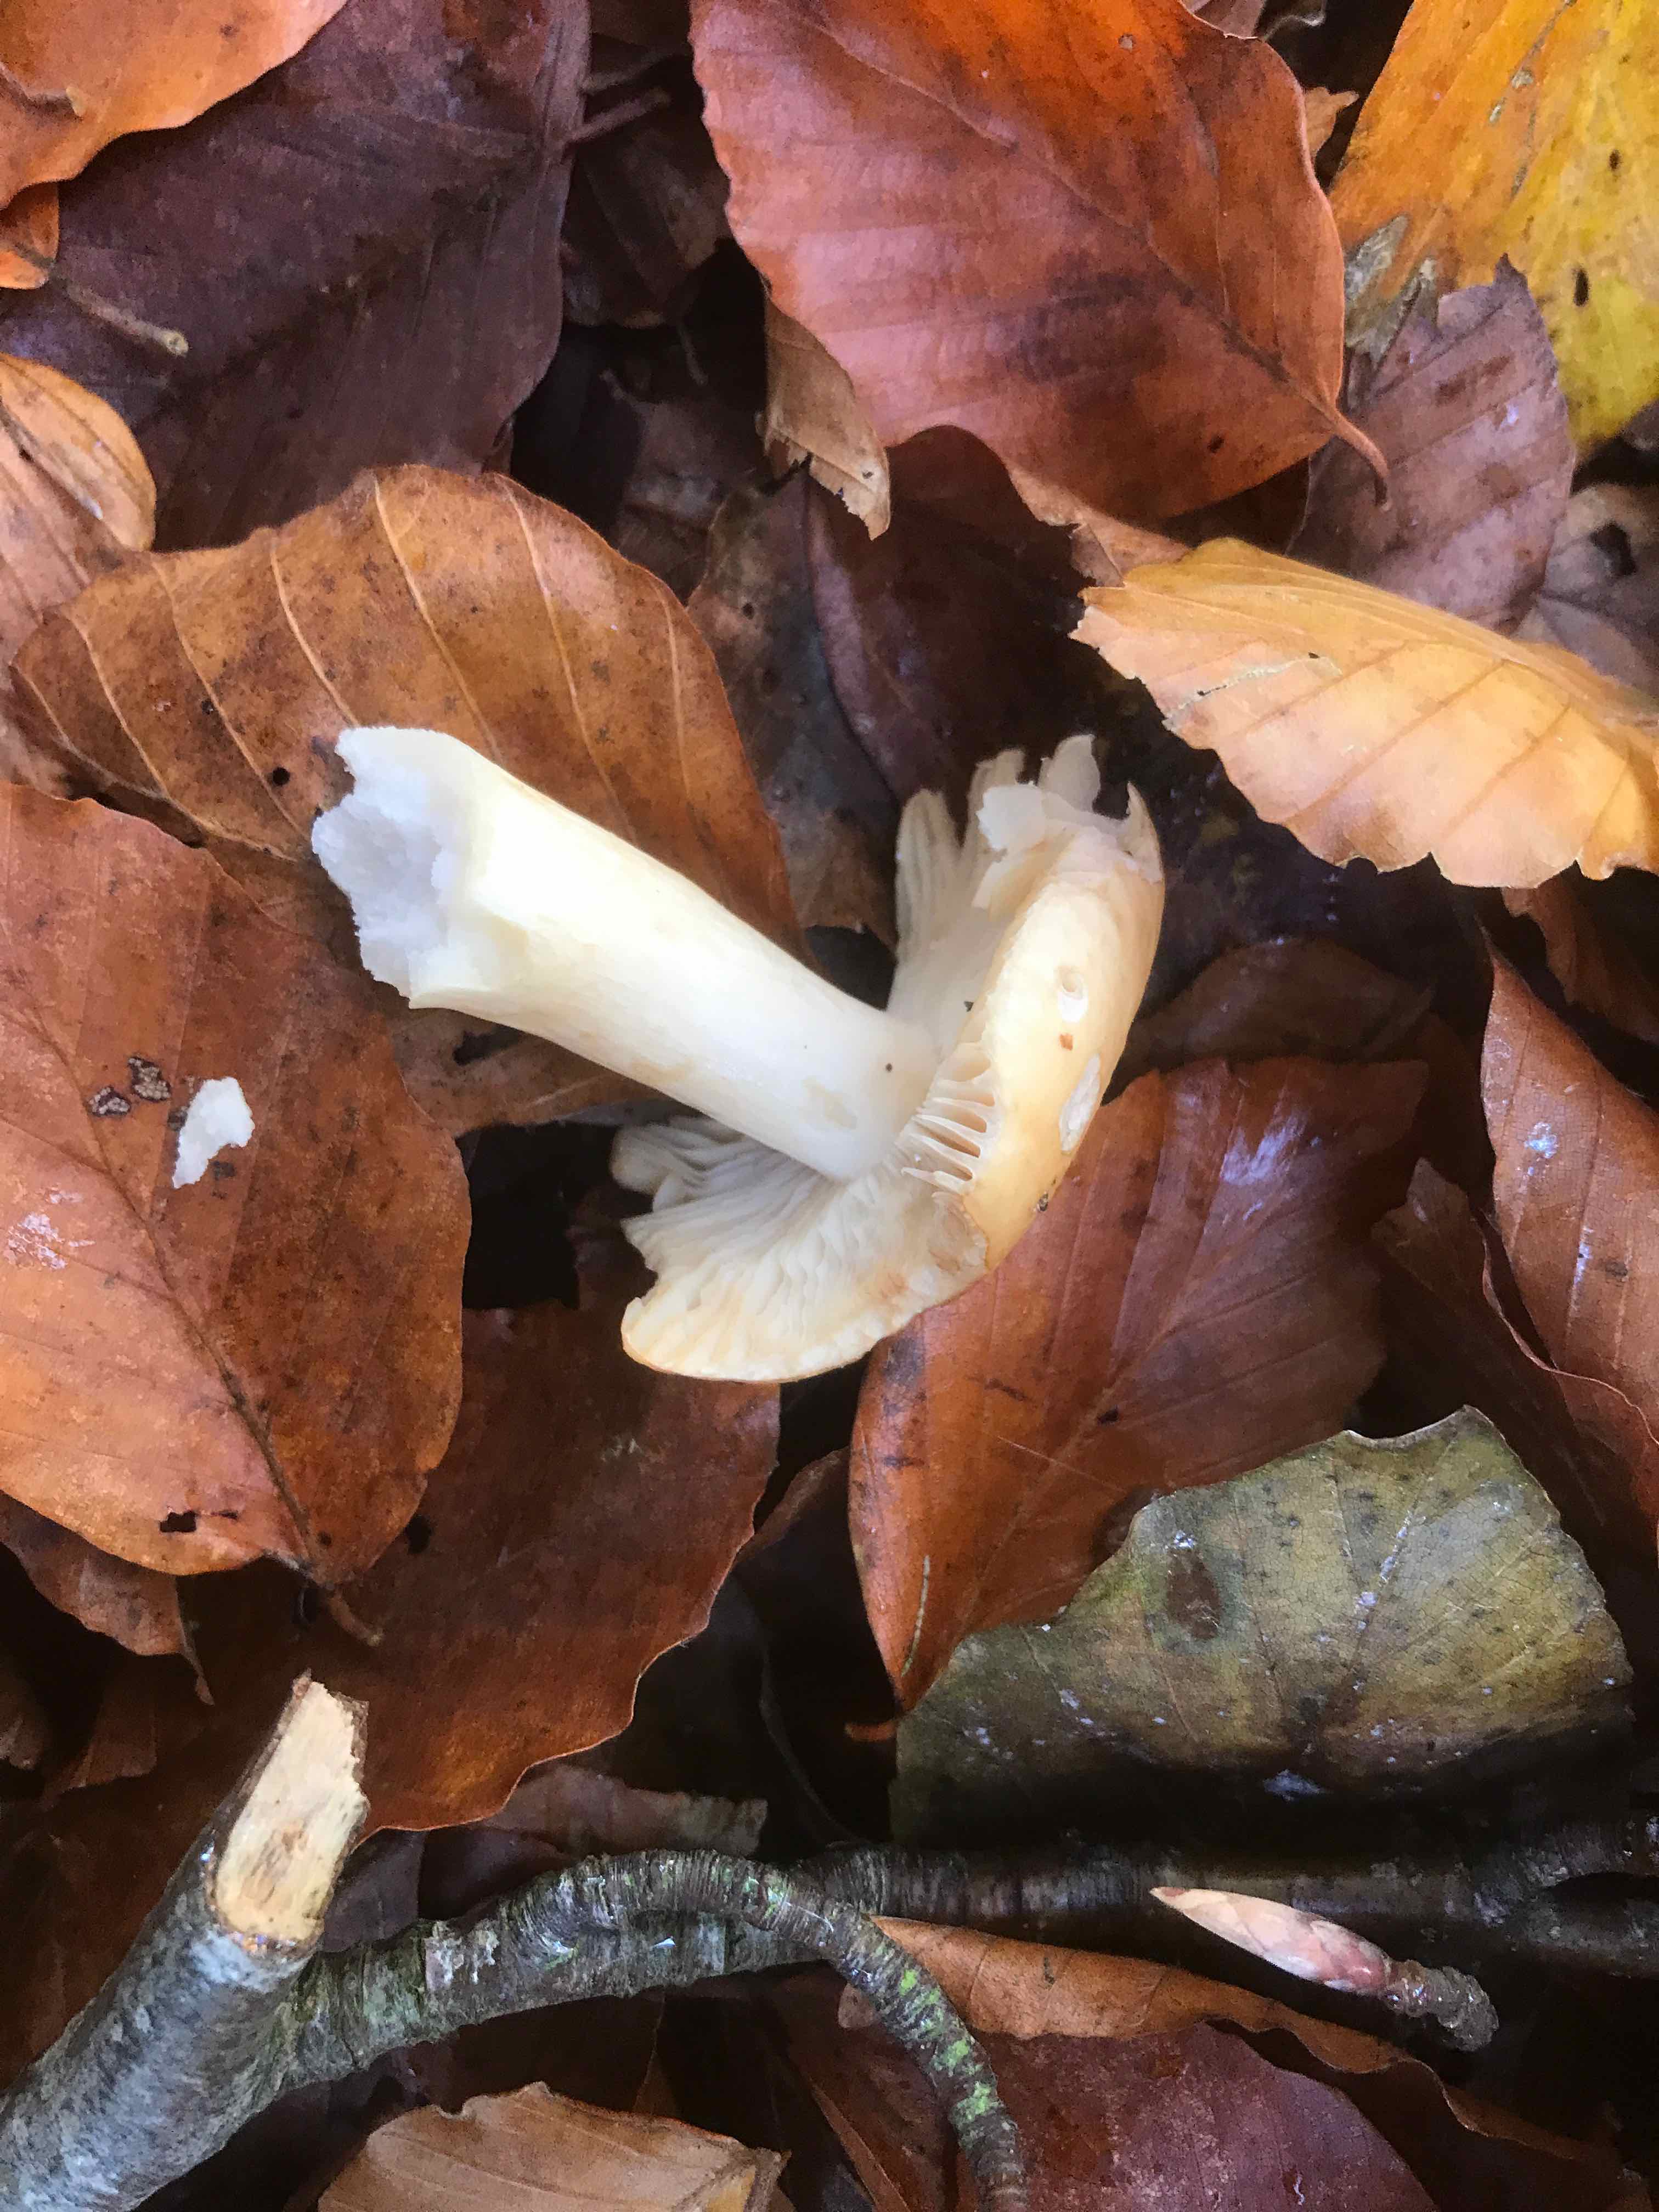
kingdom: Fungi
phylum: Basidiomycota
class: Agaricomycetes
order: Russulales
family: Russulaceae
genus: Russula
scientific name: Russula fellea
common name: galde-skørhat
